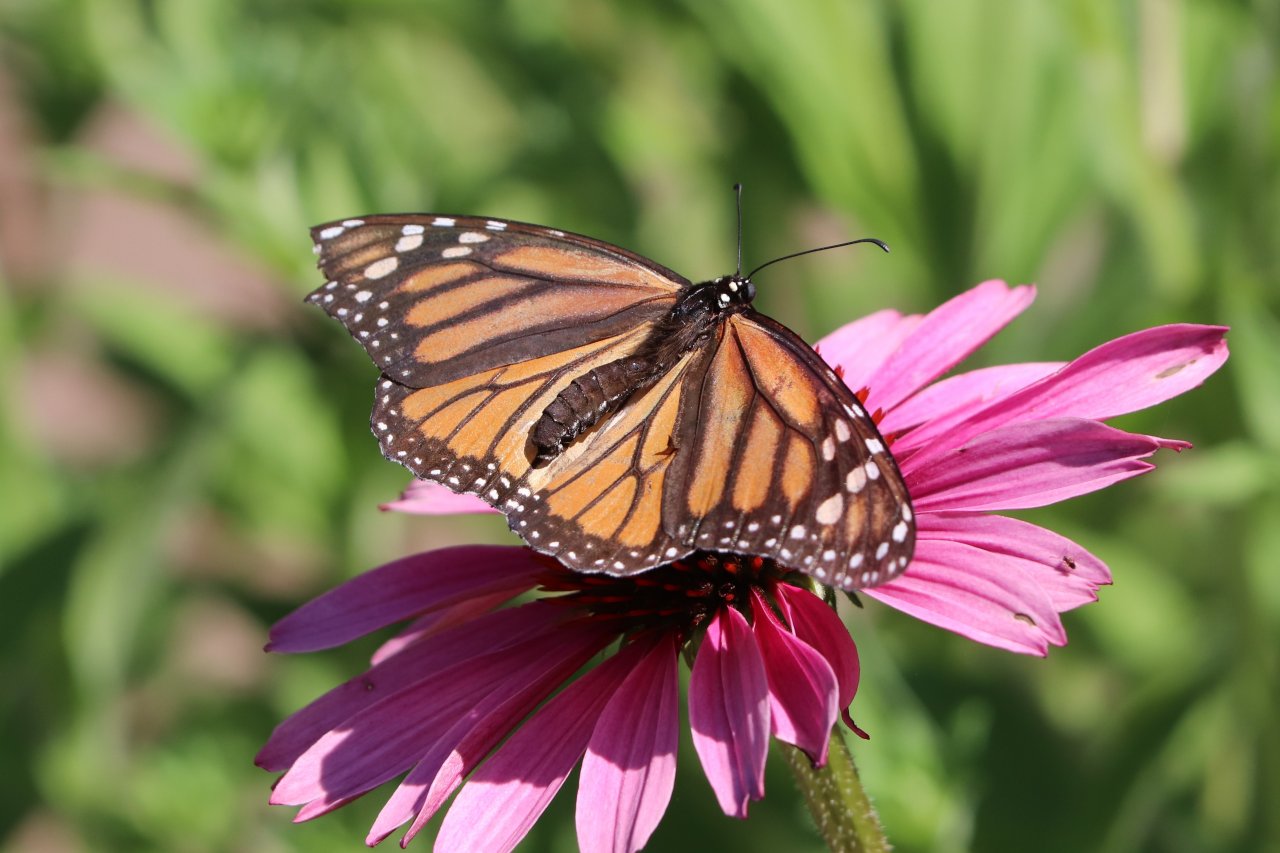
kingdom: Animalia
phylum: Arthropoda
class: Insecta
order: Lepidoptera
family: Nymphalidae
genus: Danaus
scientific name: Danaus plexippus
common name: Monarch
